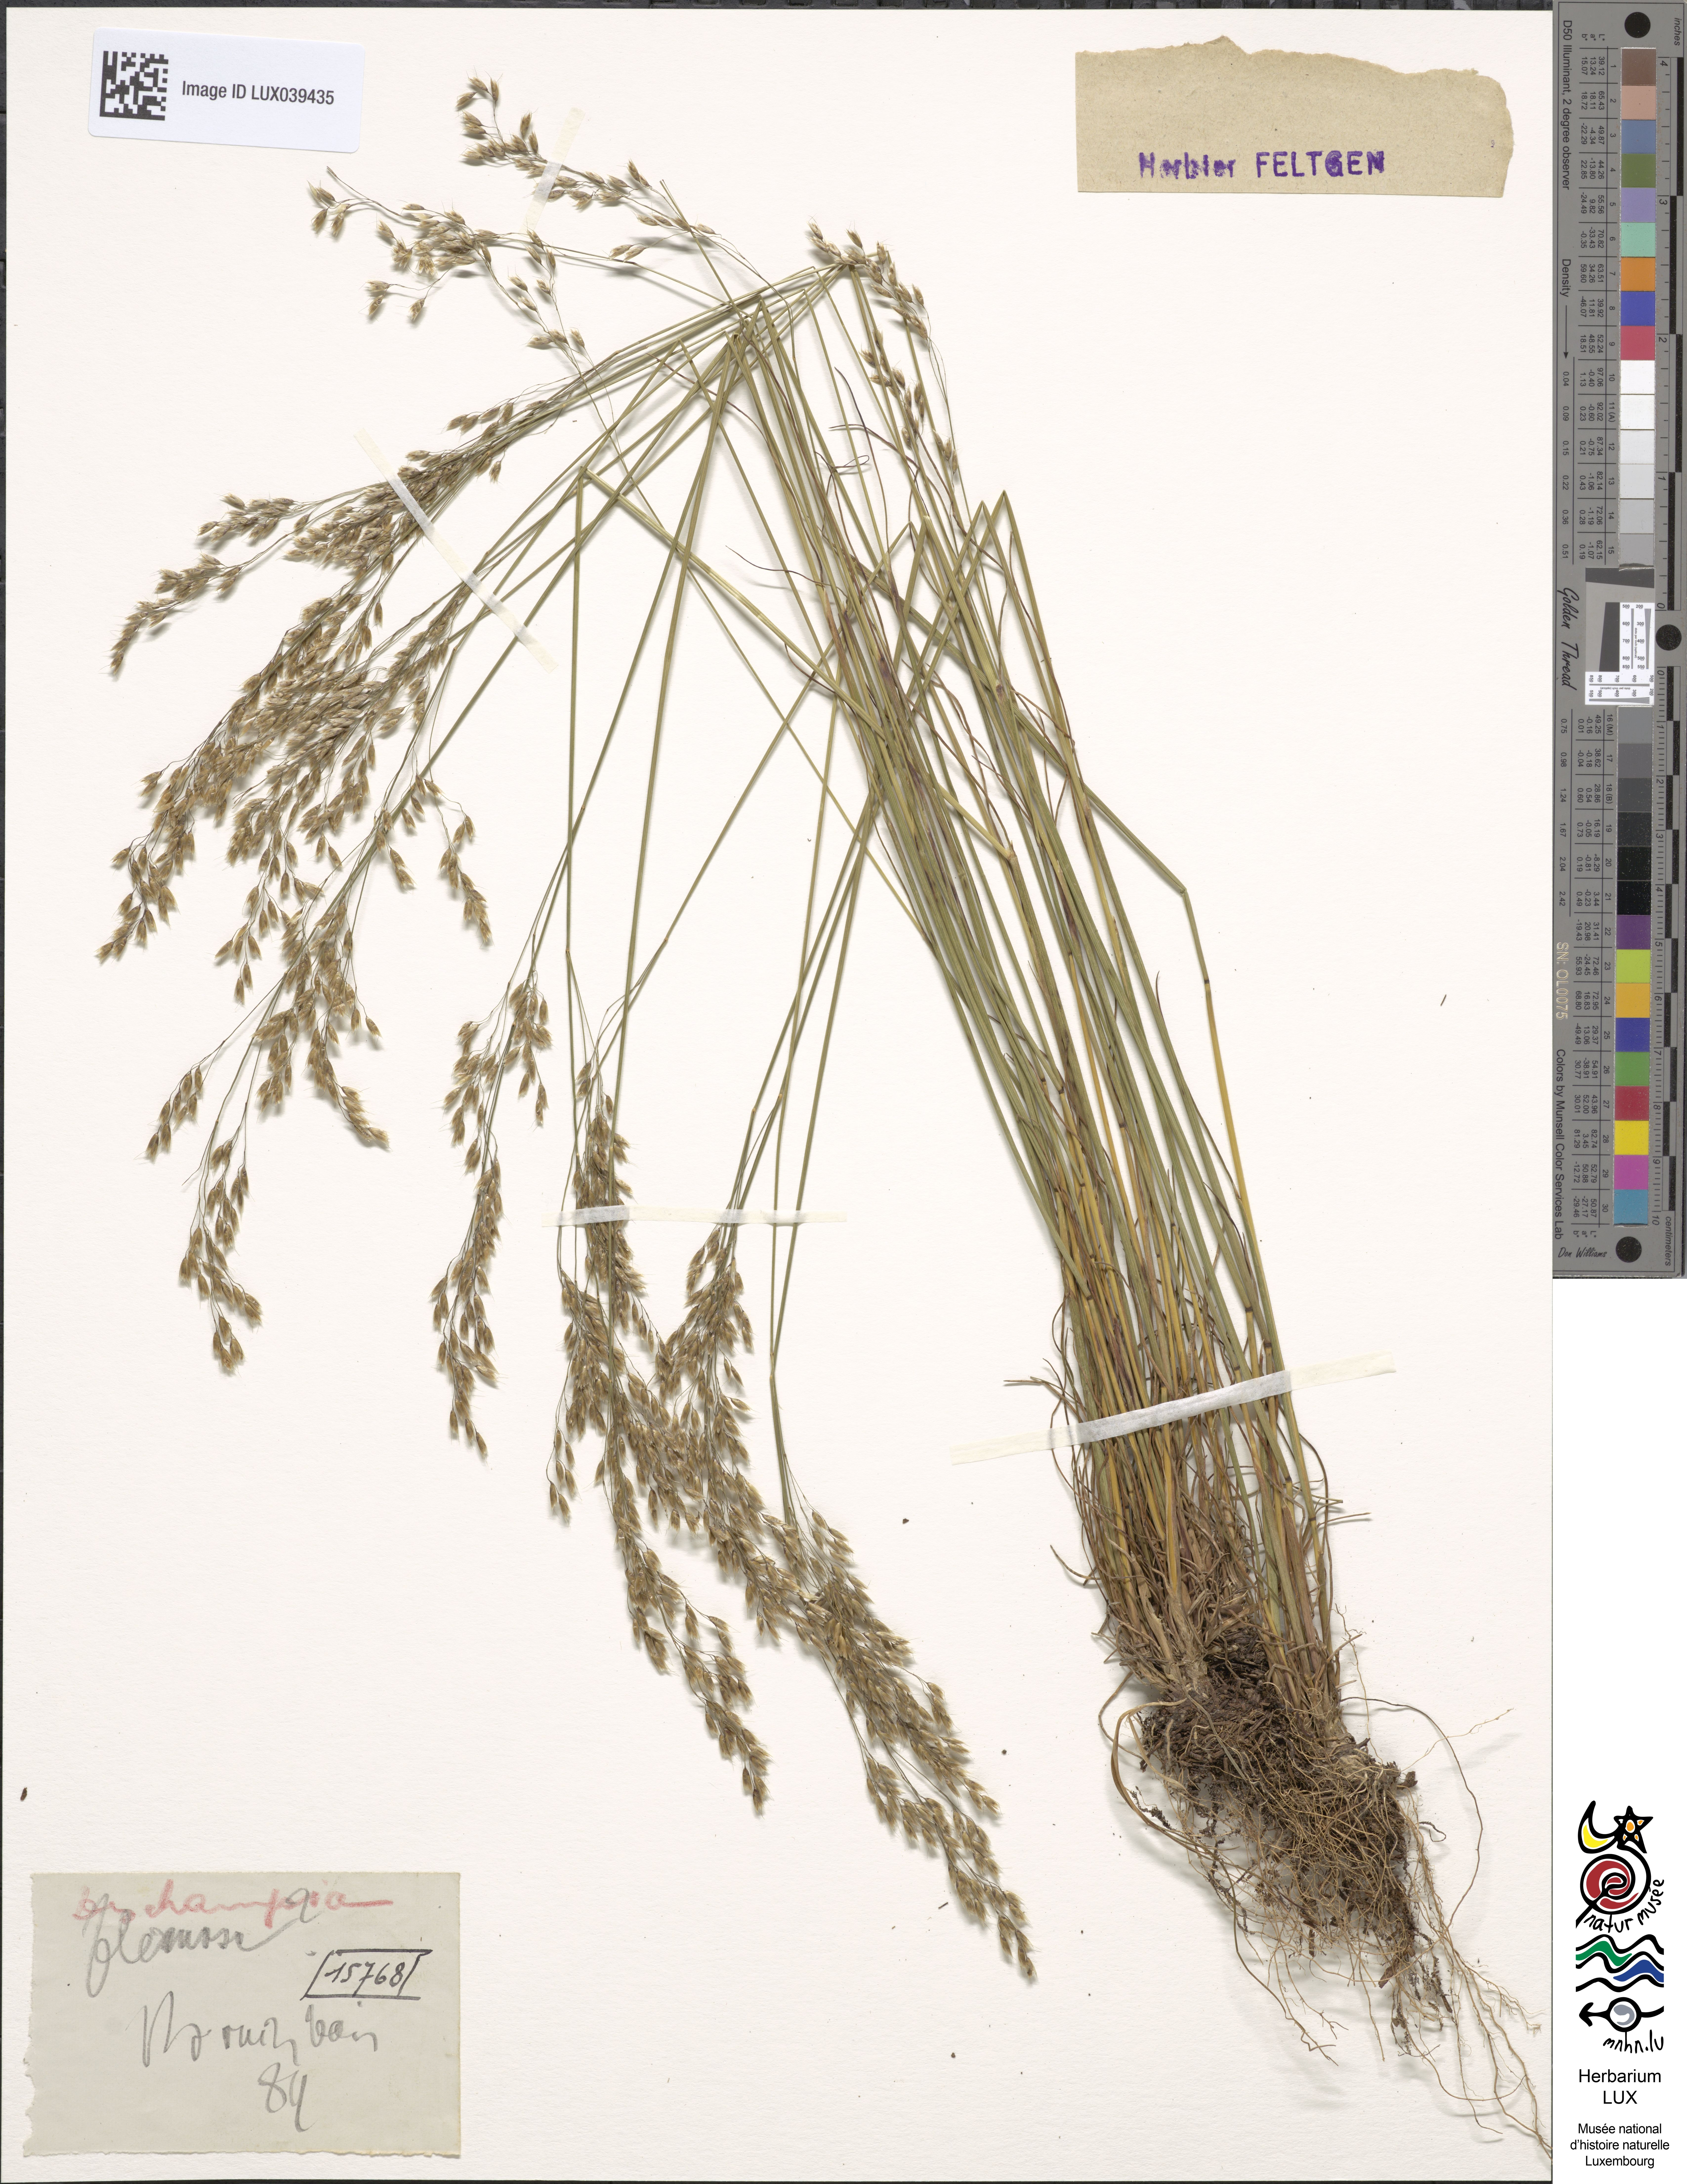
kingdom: Plantae
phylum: Tracheophyta
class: Liliopsida
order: Poales
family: Poaceae
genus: Avenella
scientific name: Avenella flexuosa
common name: Wavy hairgrass
